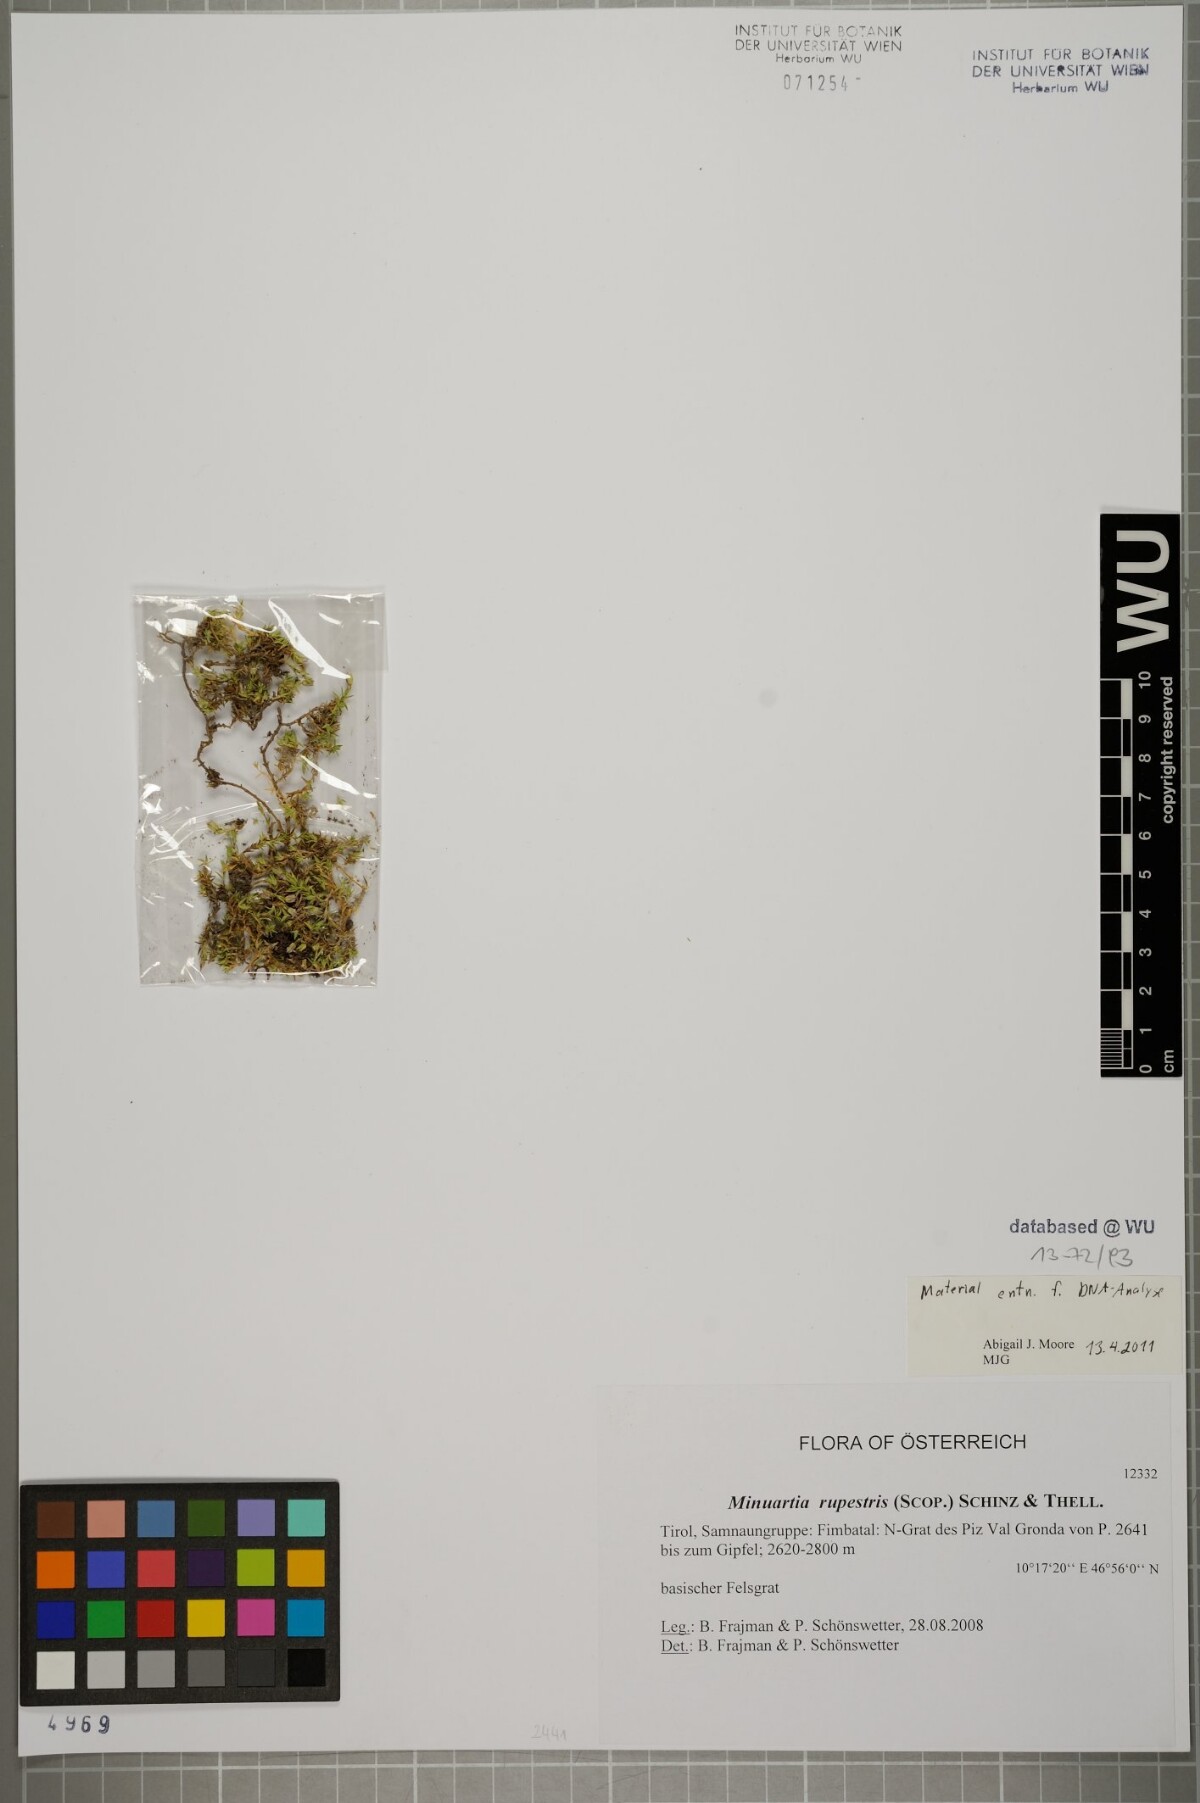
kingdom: Plantae
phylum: Tracheophyta
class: Magnoliopsida
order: Caryophyllales
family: Caryophyllaceae
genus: Facchinia
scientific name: Facchinia rupestris
